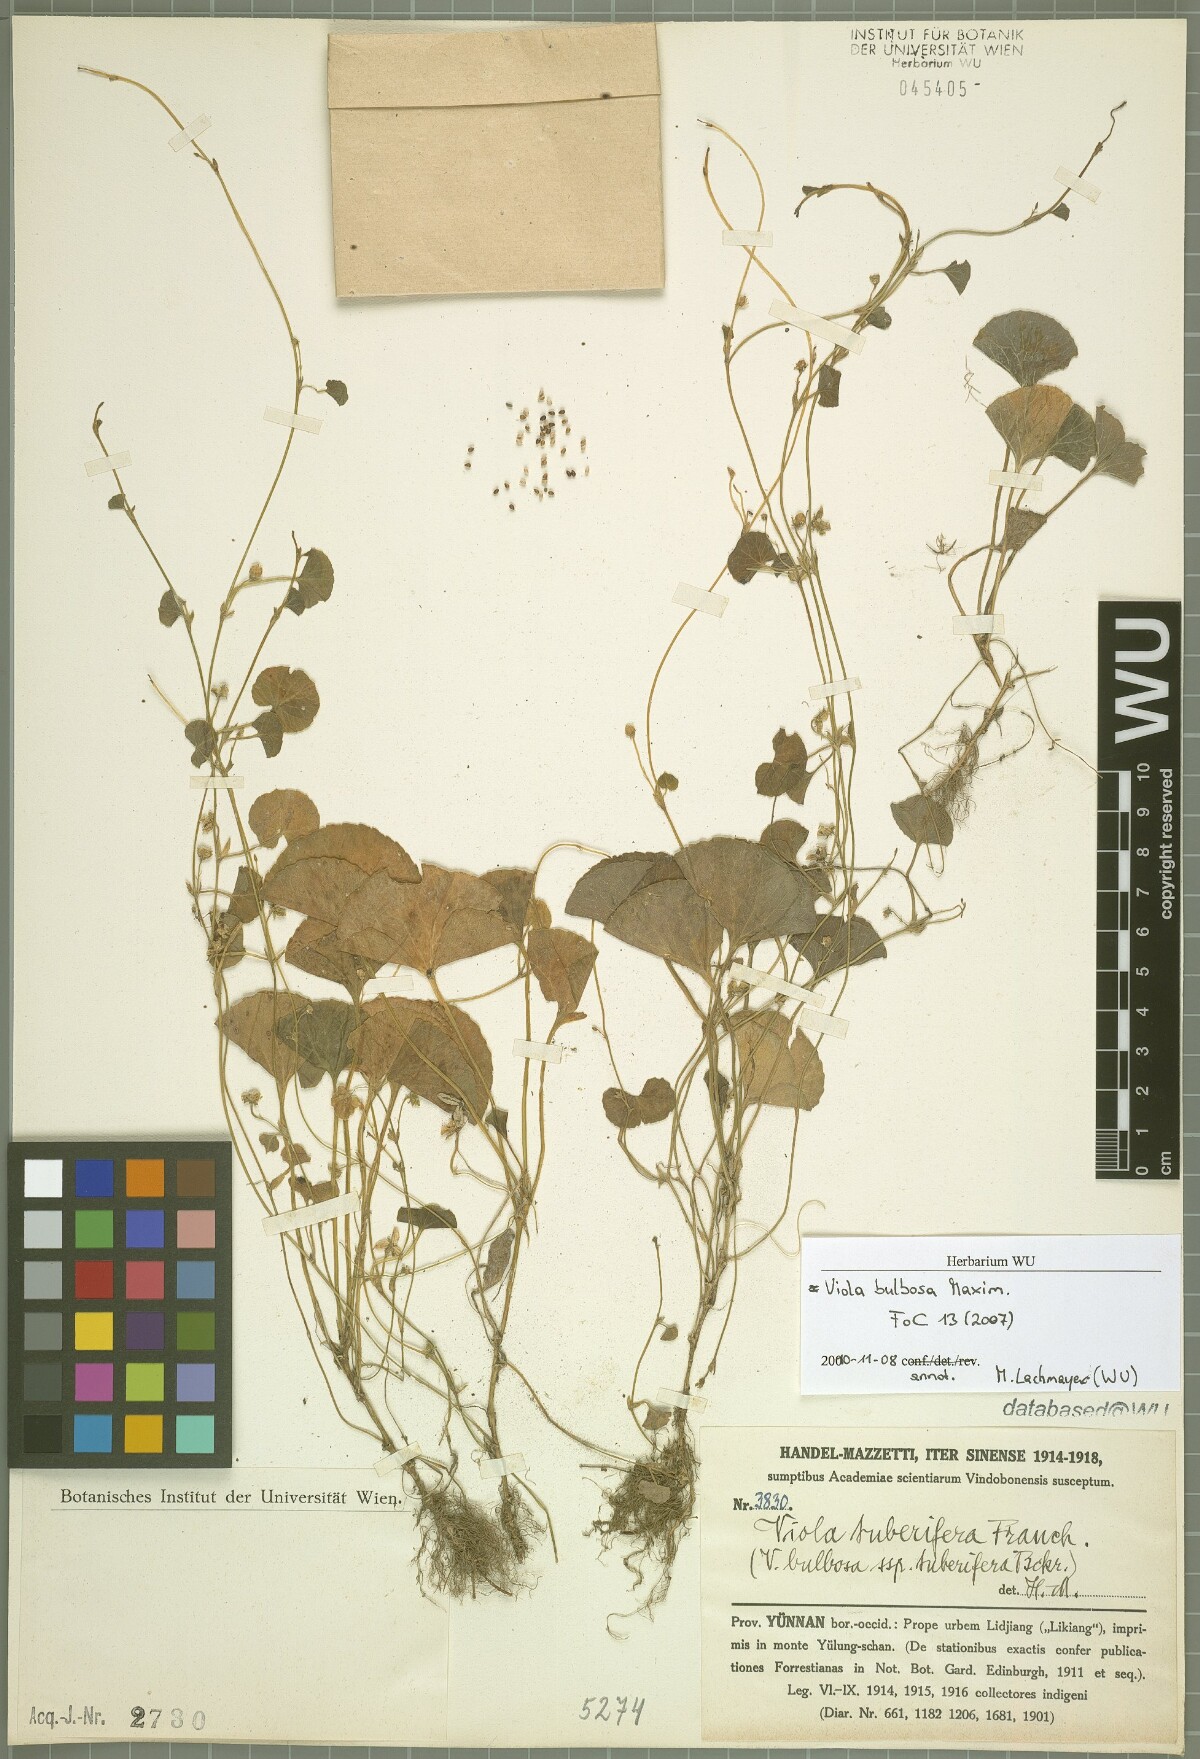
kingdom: Plantae
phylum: Tracheophyta
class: Magnoliopsida
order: Malpighiales
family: Violaceae
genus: Viola
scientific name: Viola bulbosa
